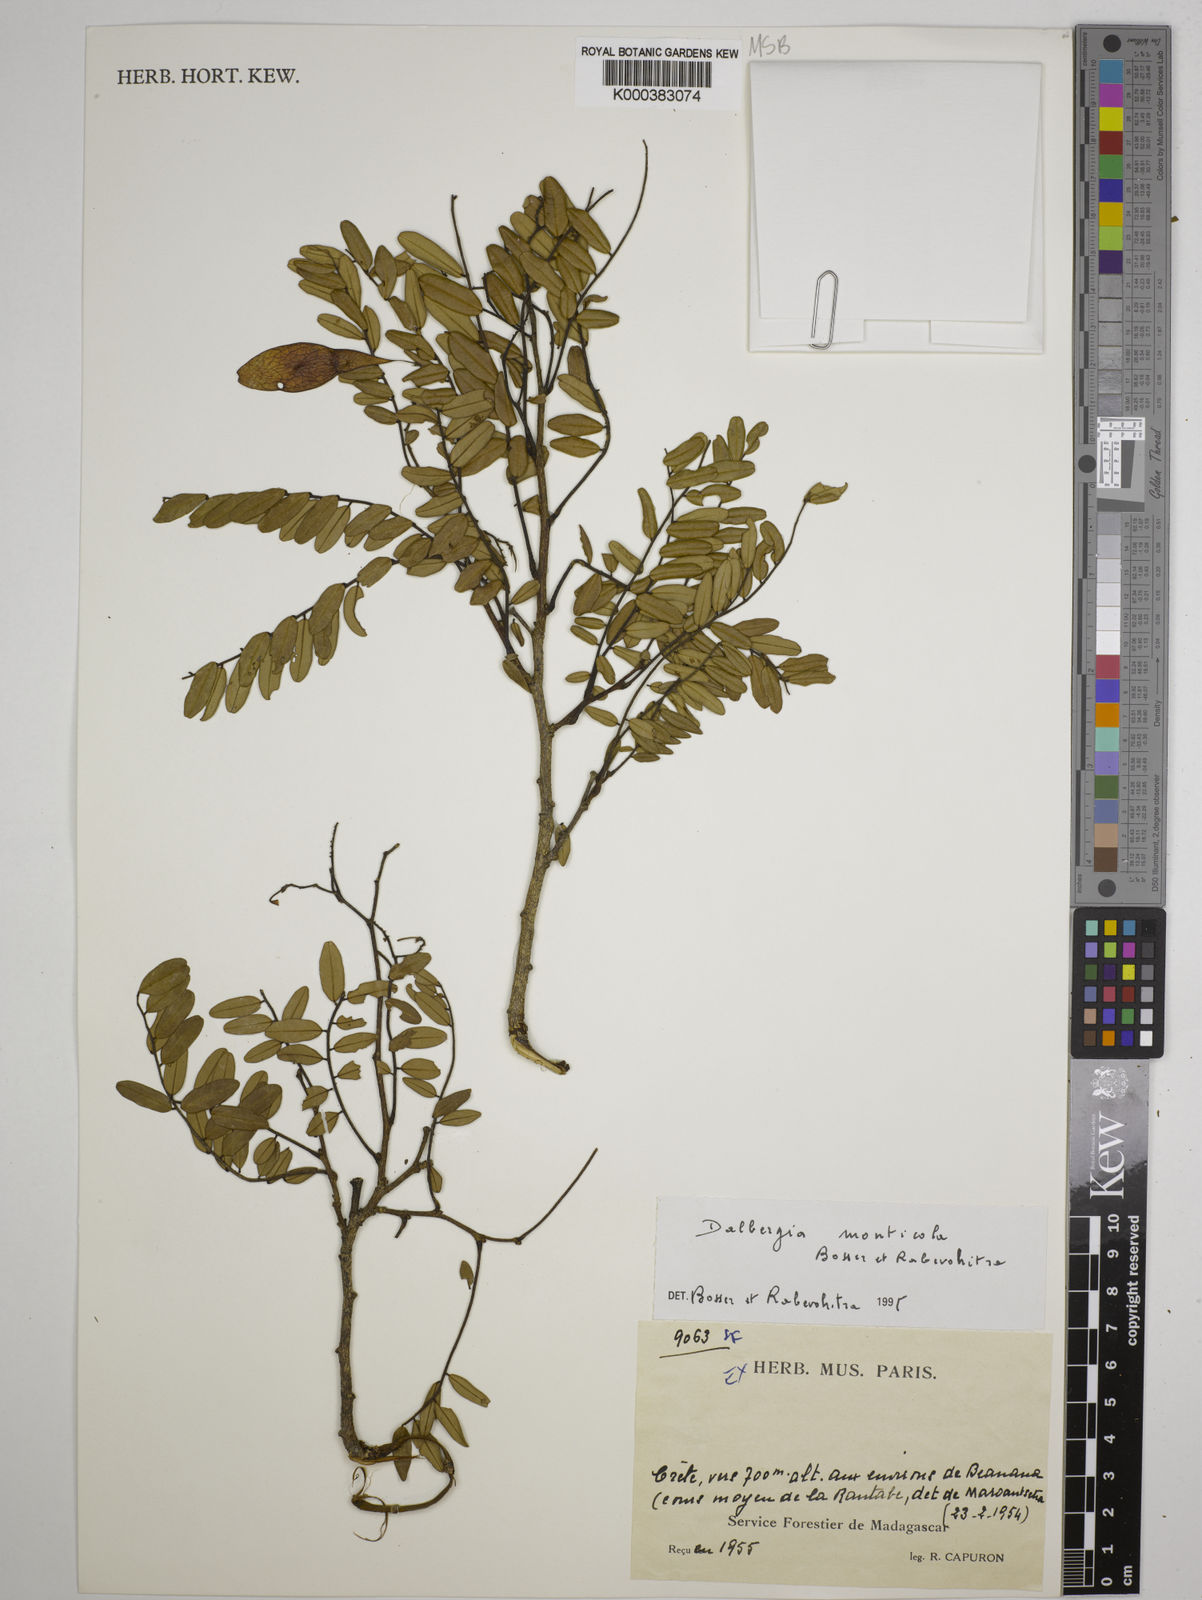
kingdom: Plantae
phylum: Tracheophyta
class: Magnoliopsida
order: Fabales
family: Fabaceae
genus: Dalbergia
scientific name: Dalbergia monticola
